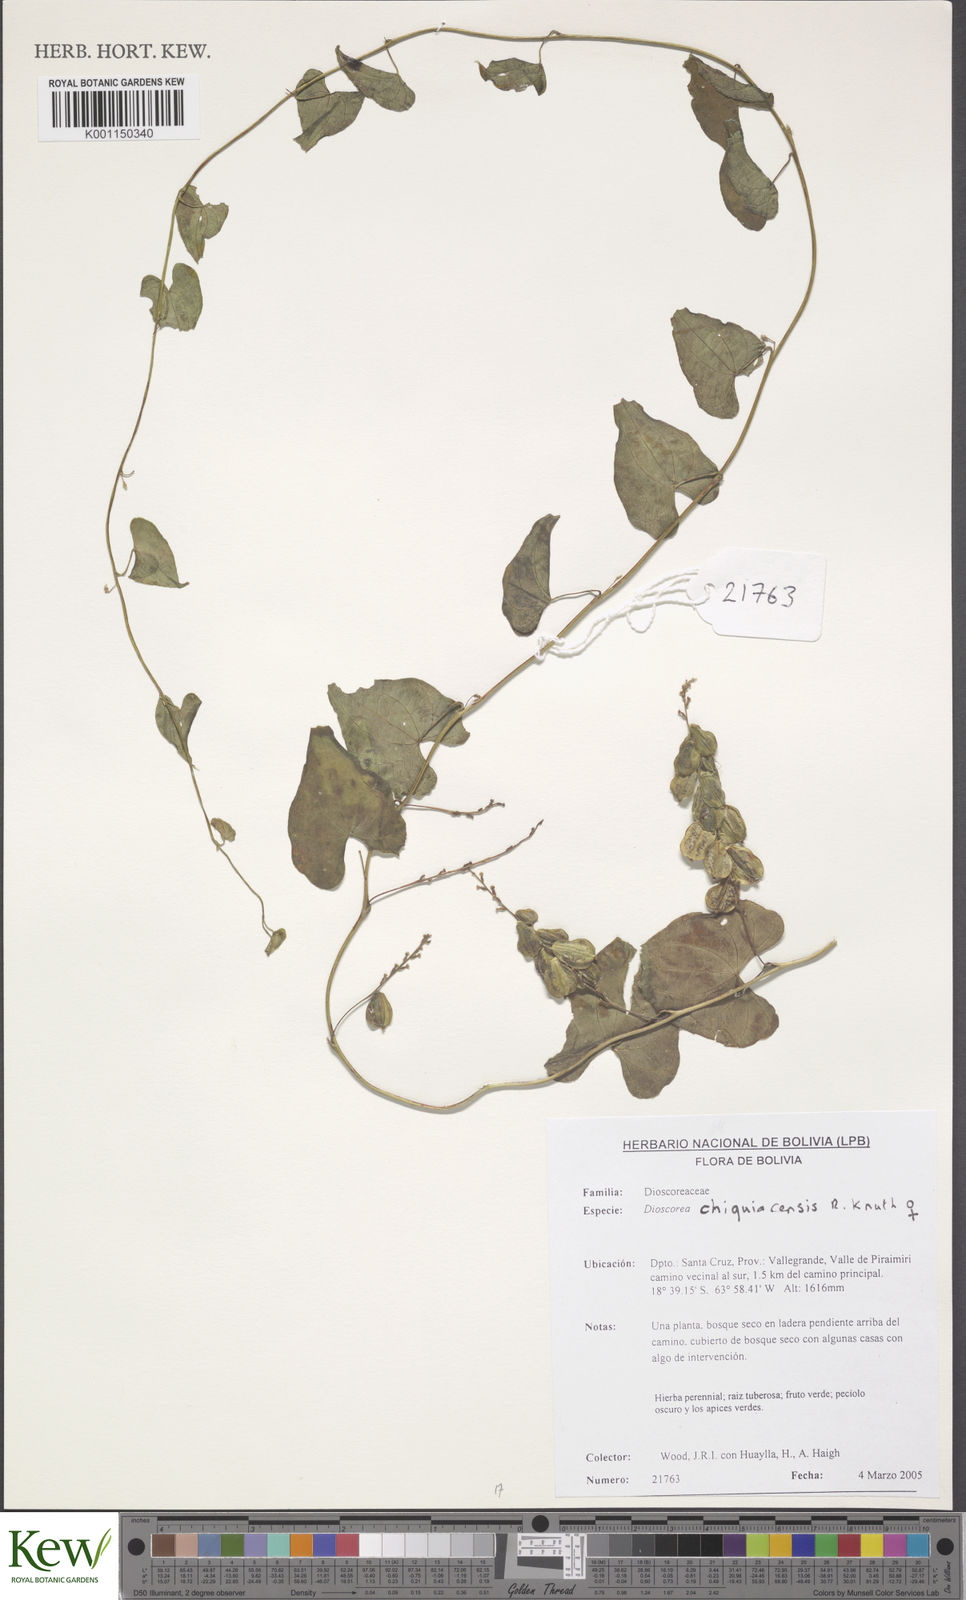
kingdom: Plantae
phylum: Tracheophyta
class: Liliopsida
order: Dioscoreales
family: Dioscoreaceae
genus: Dioscorea
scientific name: Dioscorea hieronymi
